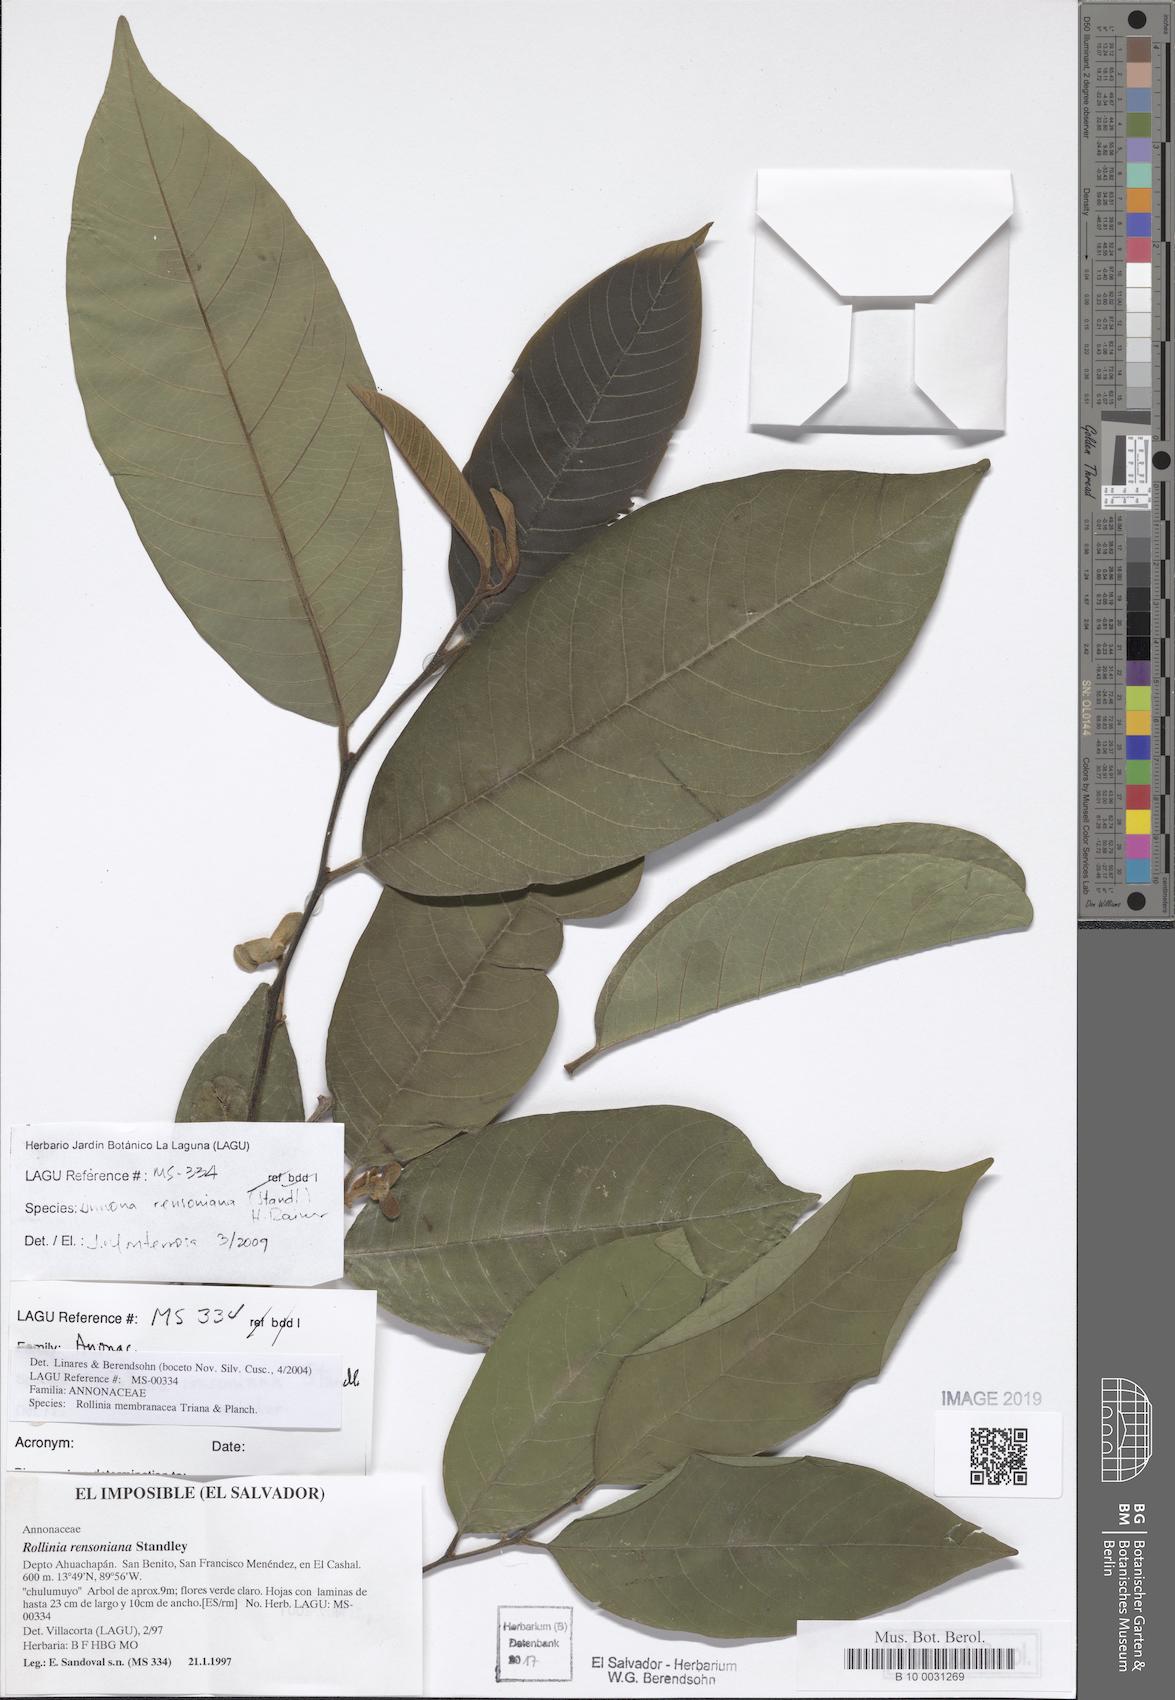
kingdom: Plantae
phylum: Tracheophyta
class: Magnoliopsida
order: Magnoliales
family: Annonaceae
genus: Annona
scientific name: Annona rensoniana
